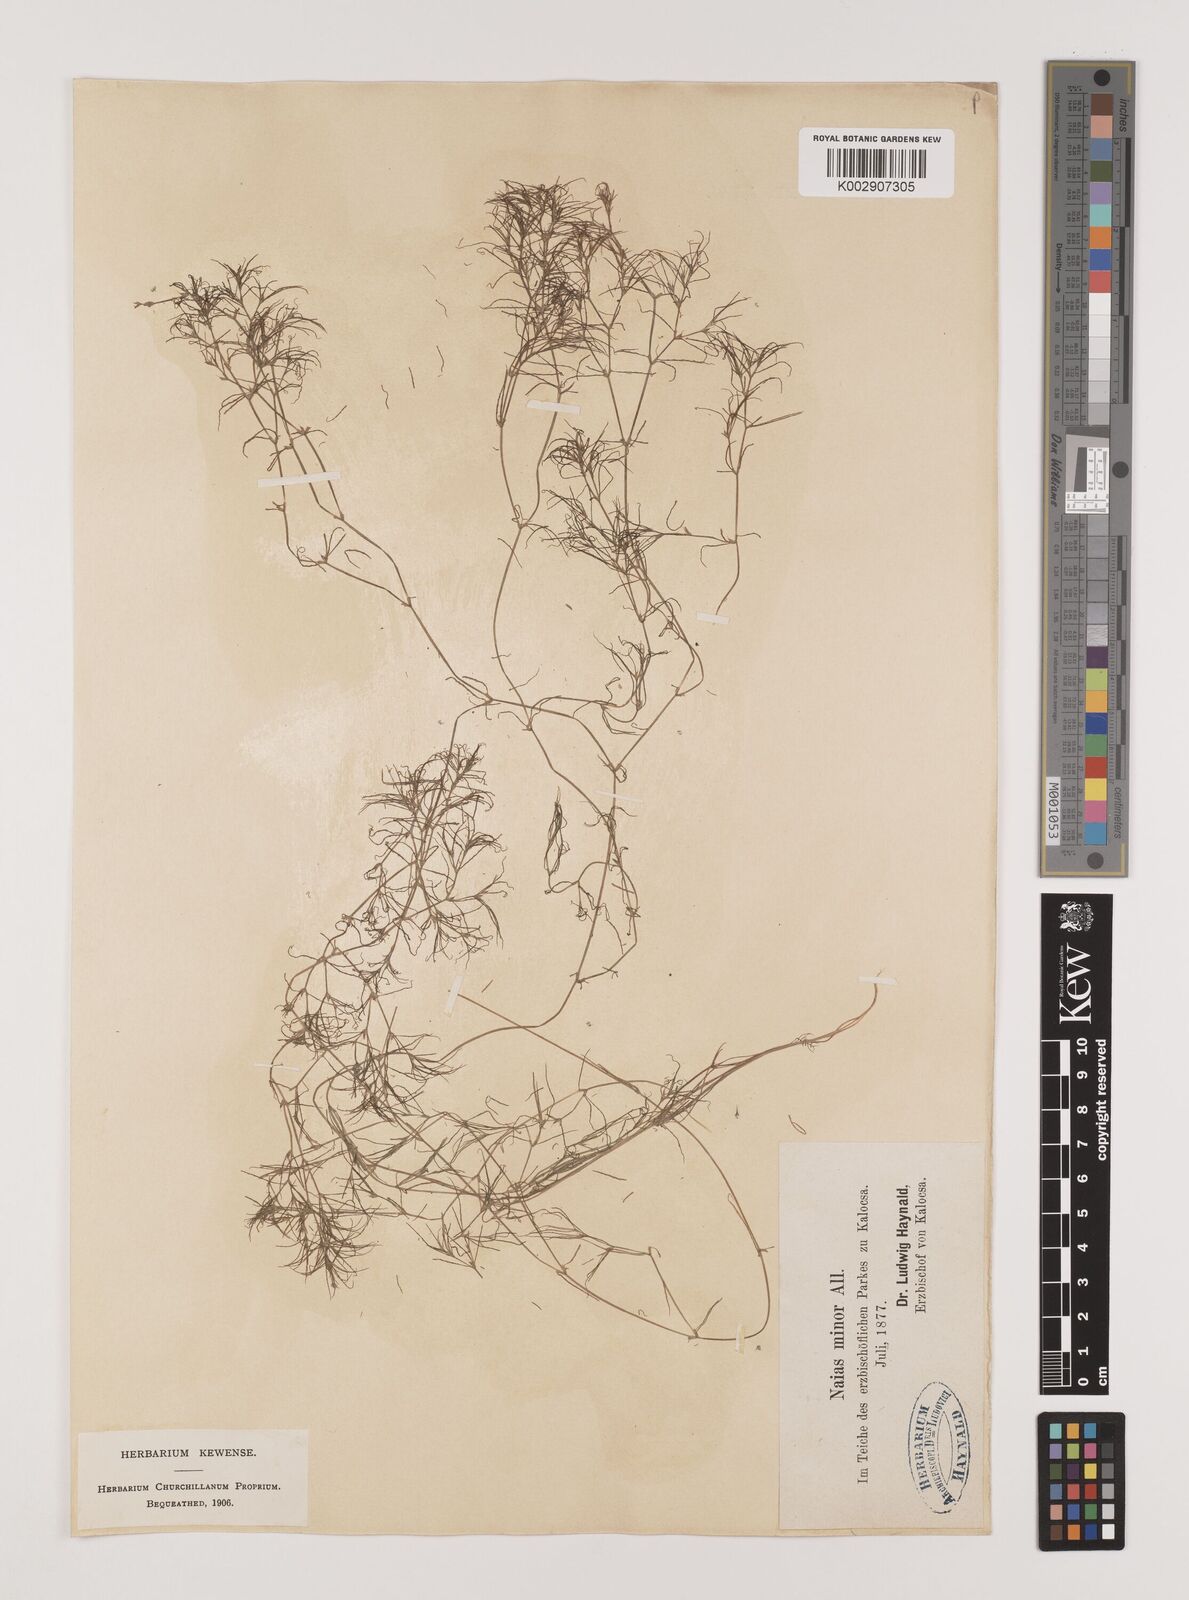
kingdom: Plantae
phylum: Tracheophyta
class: Liliopsida
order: Alismatales
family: Hydrocharitaceae
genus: Najas
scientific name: Najas minor
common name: Brittle naiad
